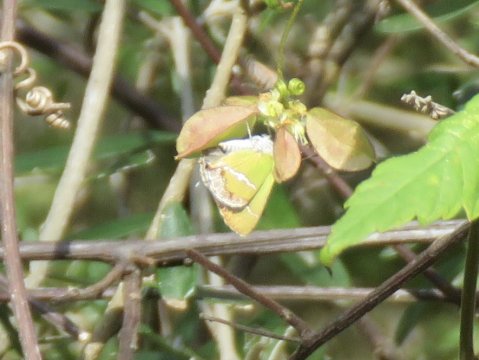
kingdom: Animalia
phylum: Arthropoda
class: Insecta
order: Lepidoptera
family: Lycaenidae
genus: Chlorostrymon
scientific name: Chlorostrymon simaethis
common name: Silver-banded Hairstreak
